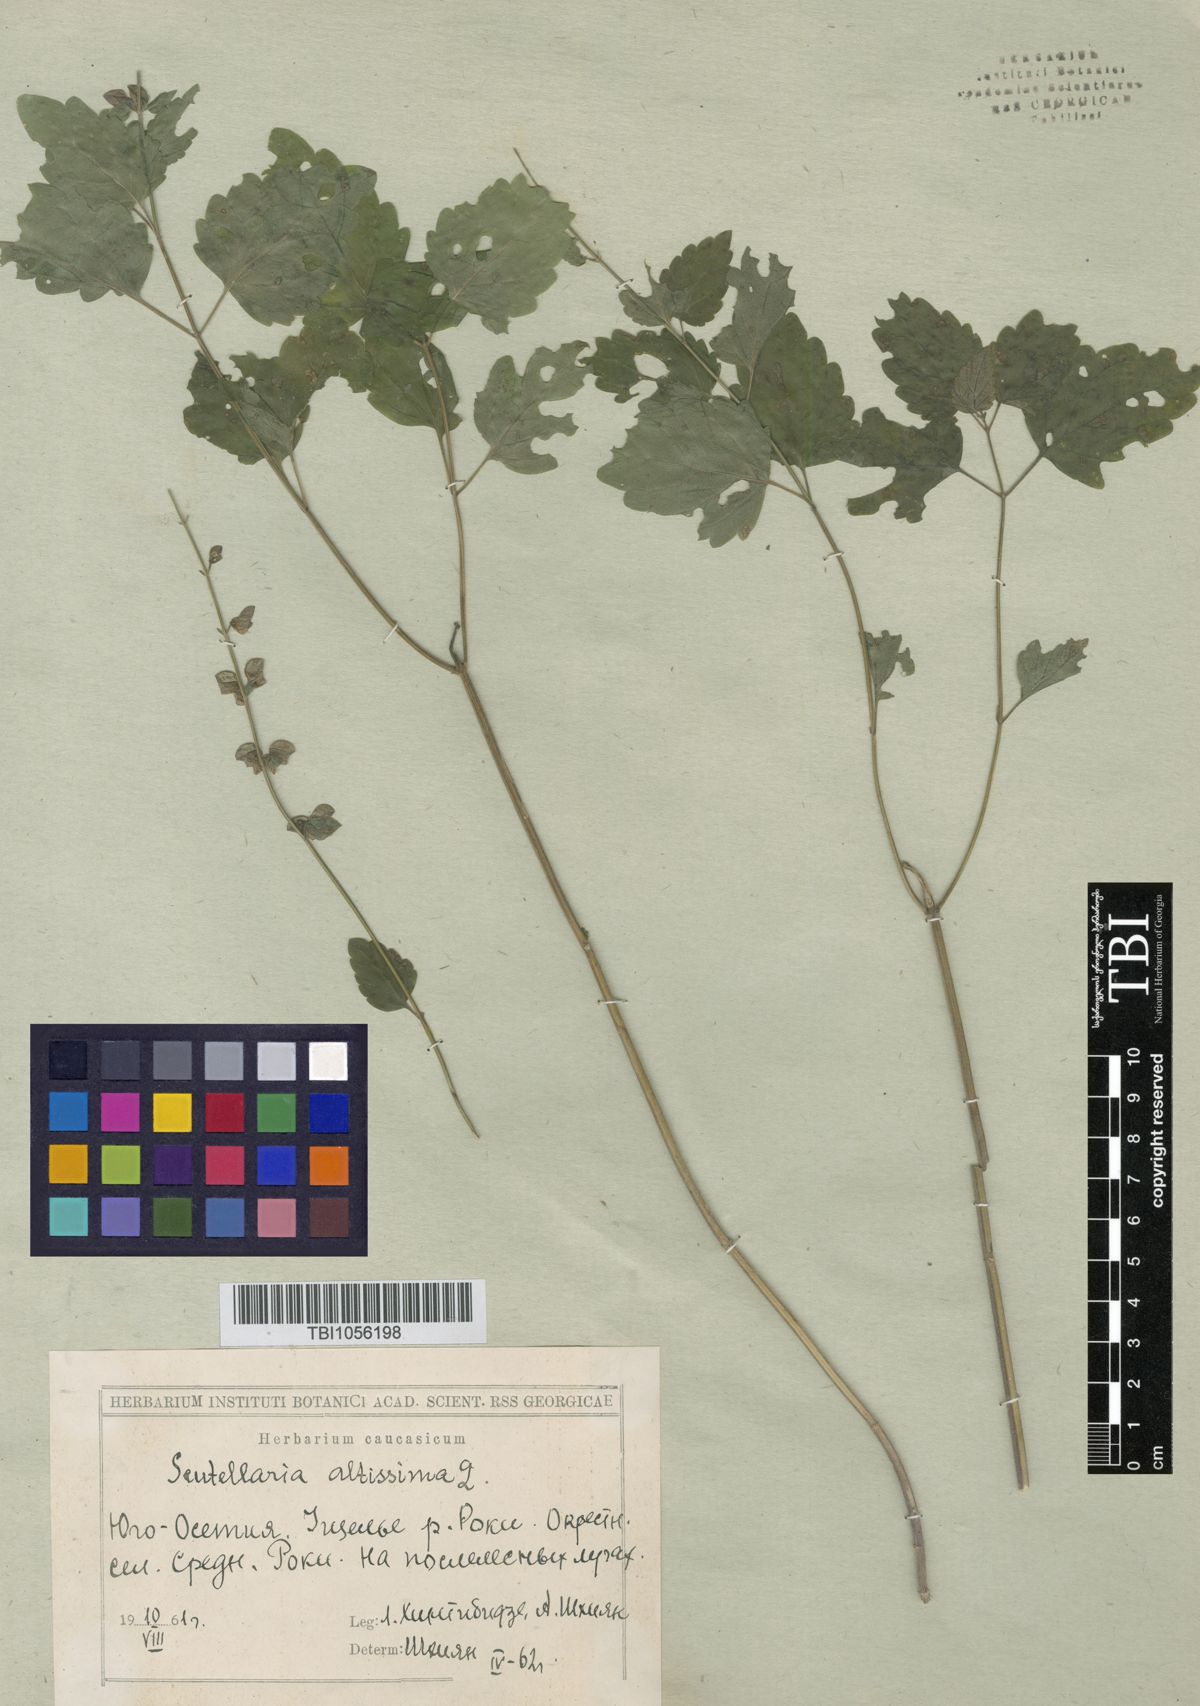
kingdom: Plantae
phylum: Tracheophyta
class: Magnoliopsida
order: Lamiales
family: Lamiaceae
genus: Scutellaria
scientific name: Scutellaria altissima
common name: Somerset skullcap
